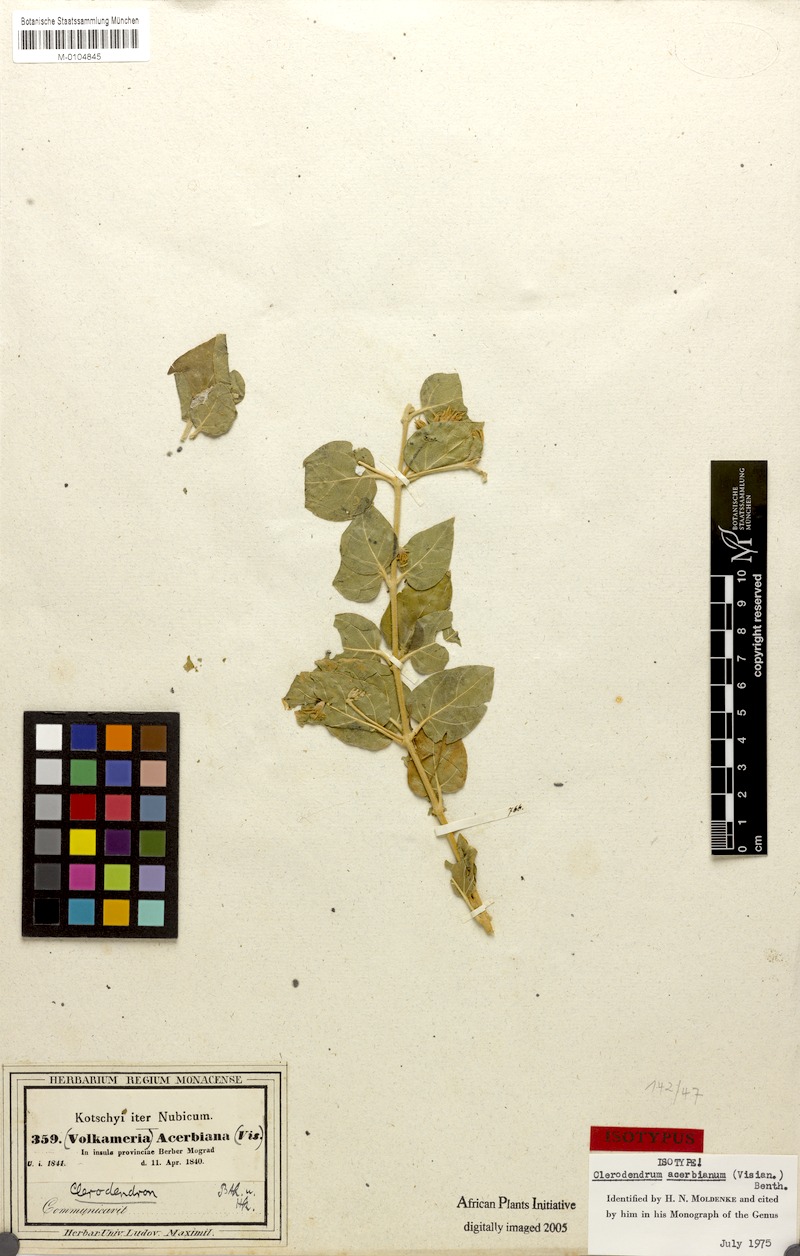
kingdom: Plantae
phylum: Tracheophyta
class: Magnoliopsida
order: Lamiales
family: Lamiaceae
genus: Volkameria
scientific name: Volkameria acerbiana
